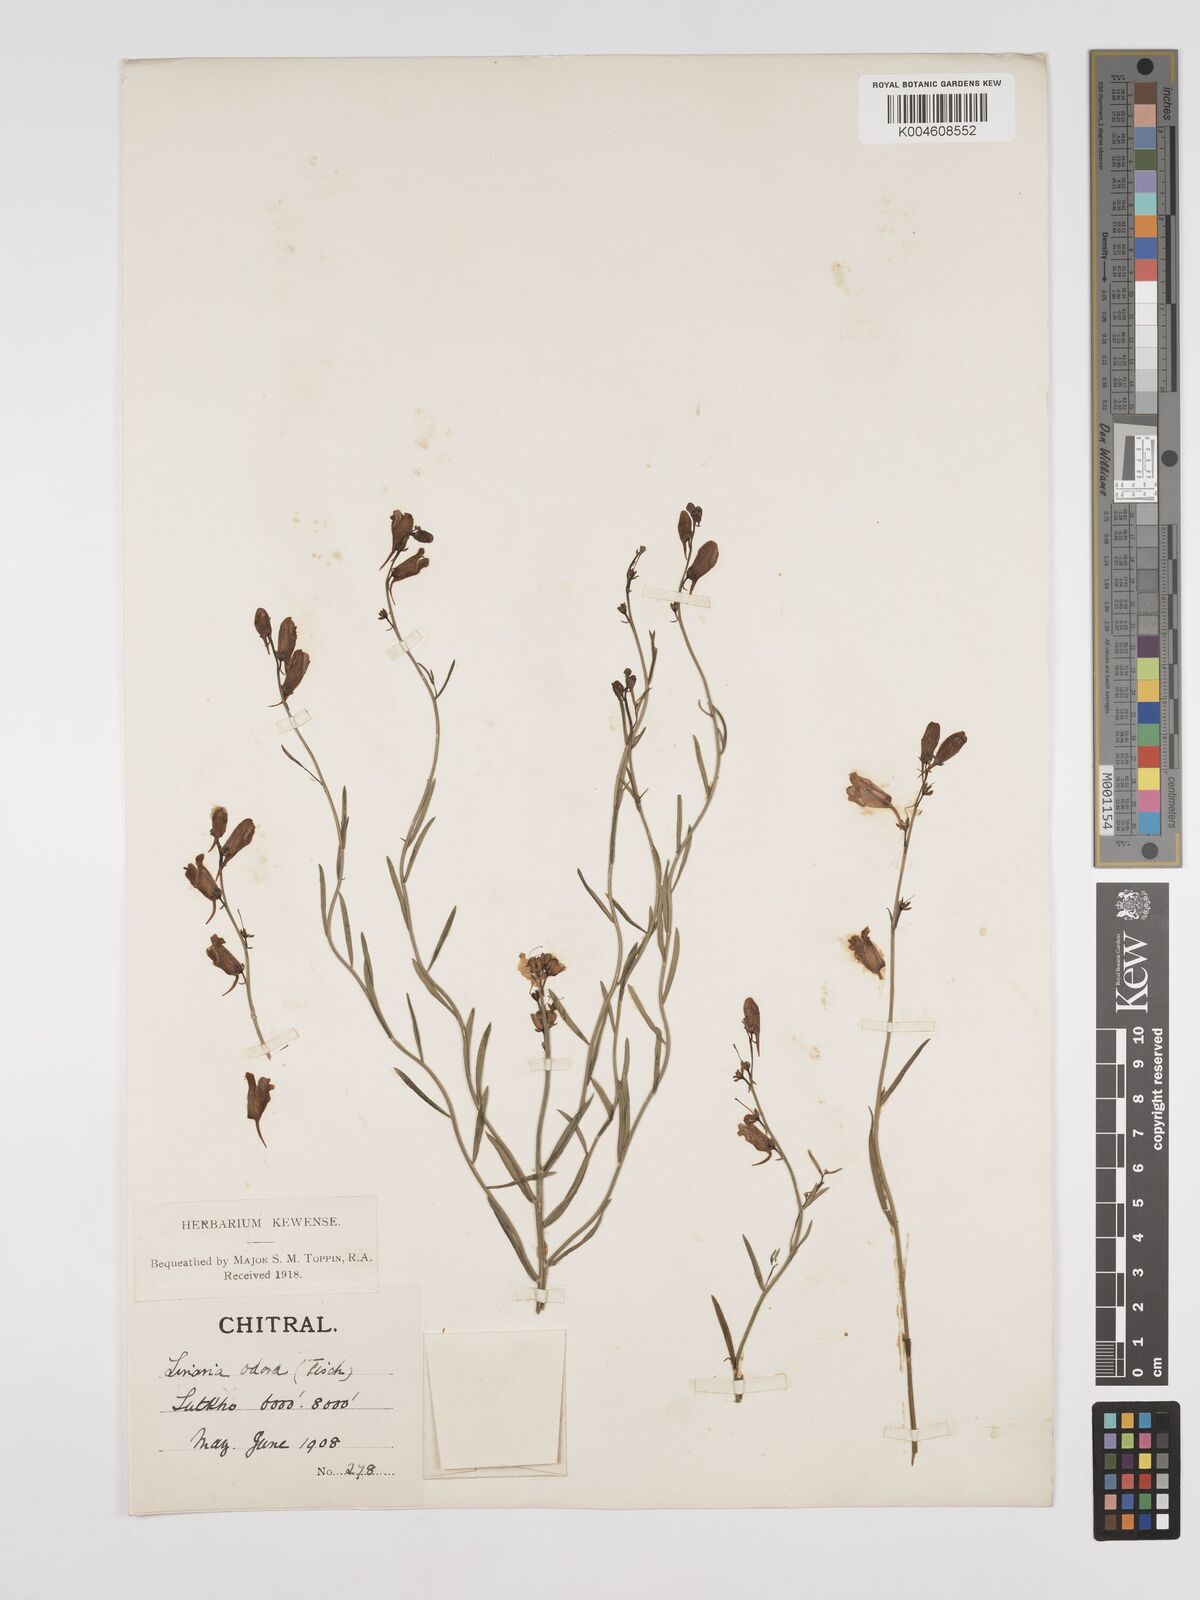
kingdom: Plantae
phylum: Tracheophyta
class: Magnoliopsida
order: Lamiales
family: Plantaginaceae
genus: Kickxia
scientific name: Kickxia
